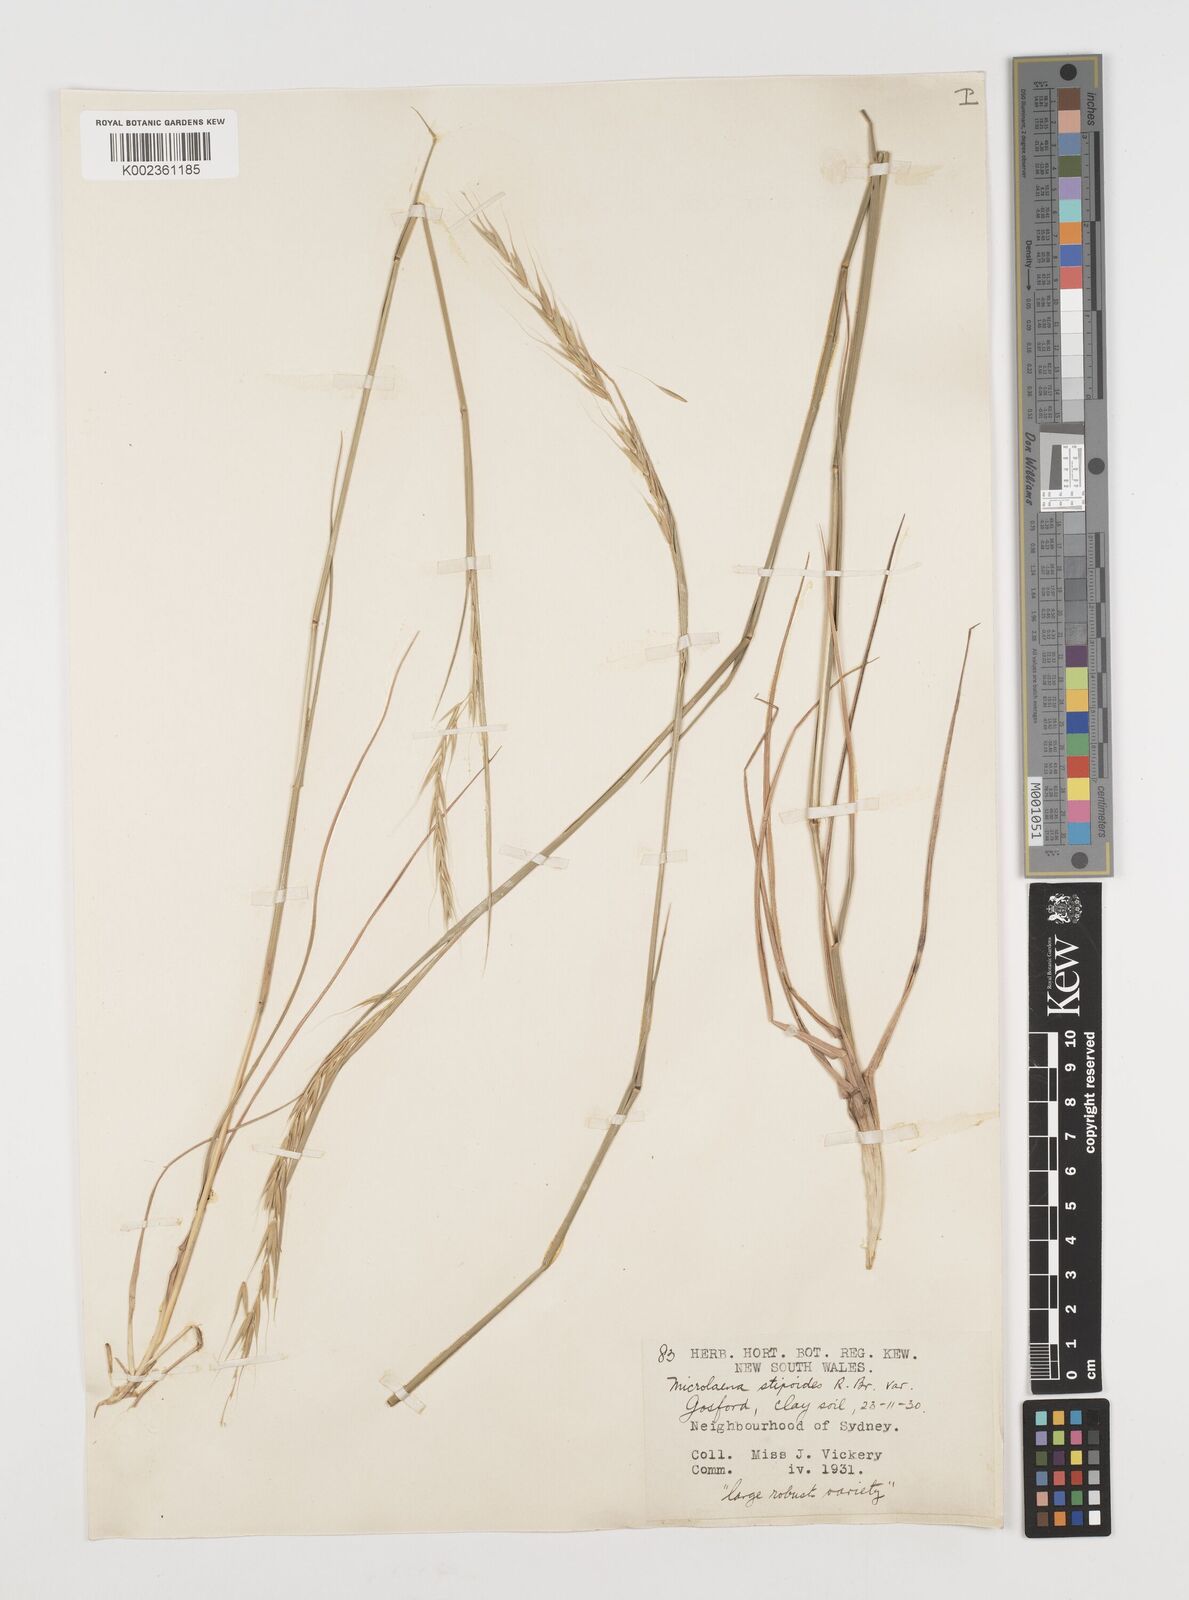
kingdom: Plantae
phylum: Tracheophyta
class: Liliopsida
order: Poales
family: Poaceae
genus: Microlaena
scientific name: Microlaena stipoides
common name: Meadow ricegrass
